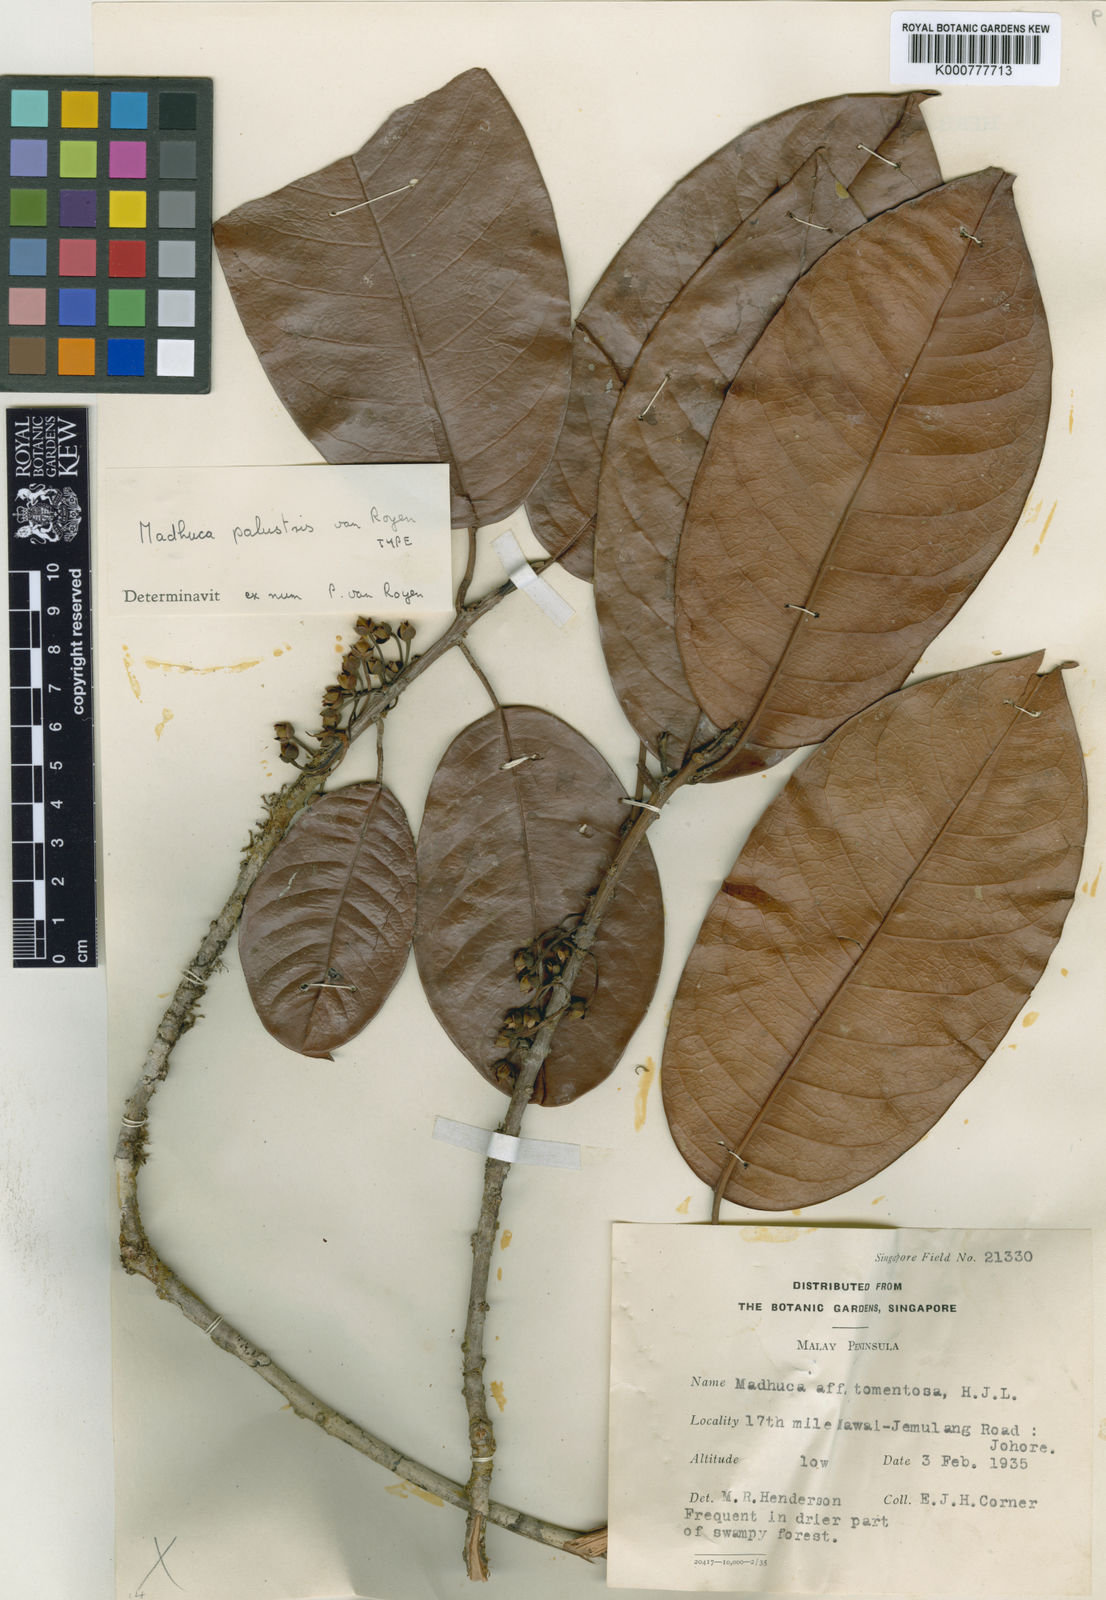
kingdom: Plantae
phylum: Tracheophyta
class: Magnoliopsida
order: Ericales
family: Sapotaceae
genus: Madhuca
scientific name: Madhuca tomentosa
